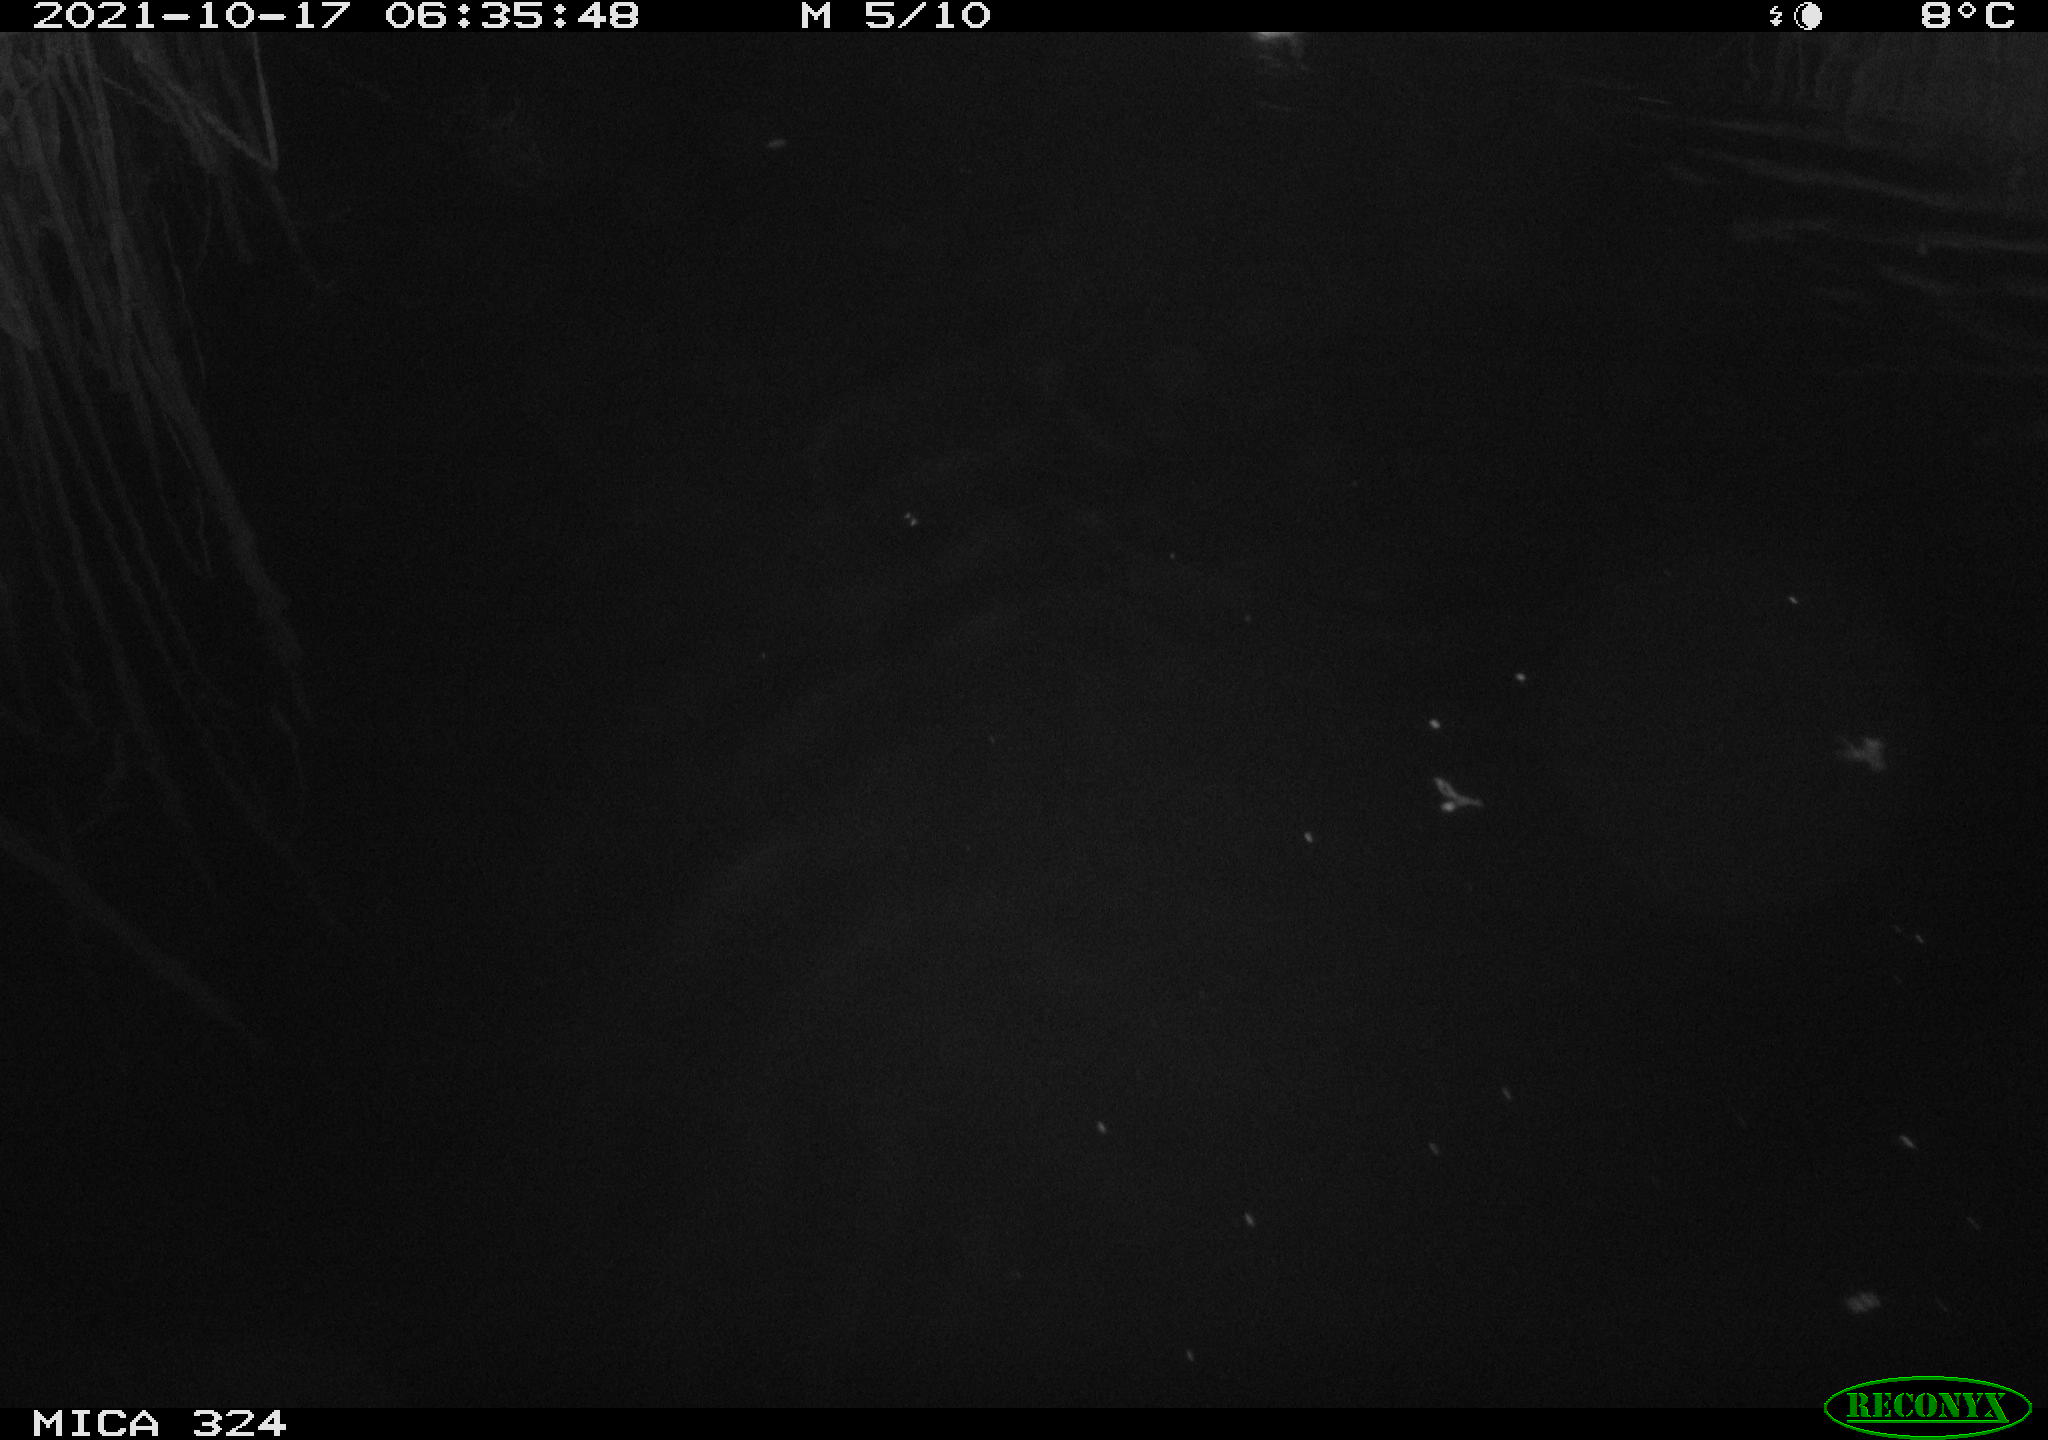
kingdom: Animalia
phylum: Chordata
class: Mammalia
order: Rodentia
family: Cricetidae
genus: Ondatra
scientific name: Ondatra zibethicus
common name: Muskrat
